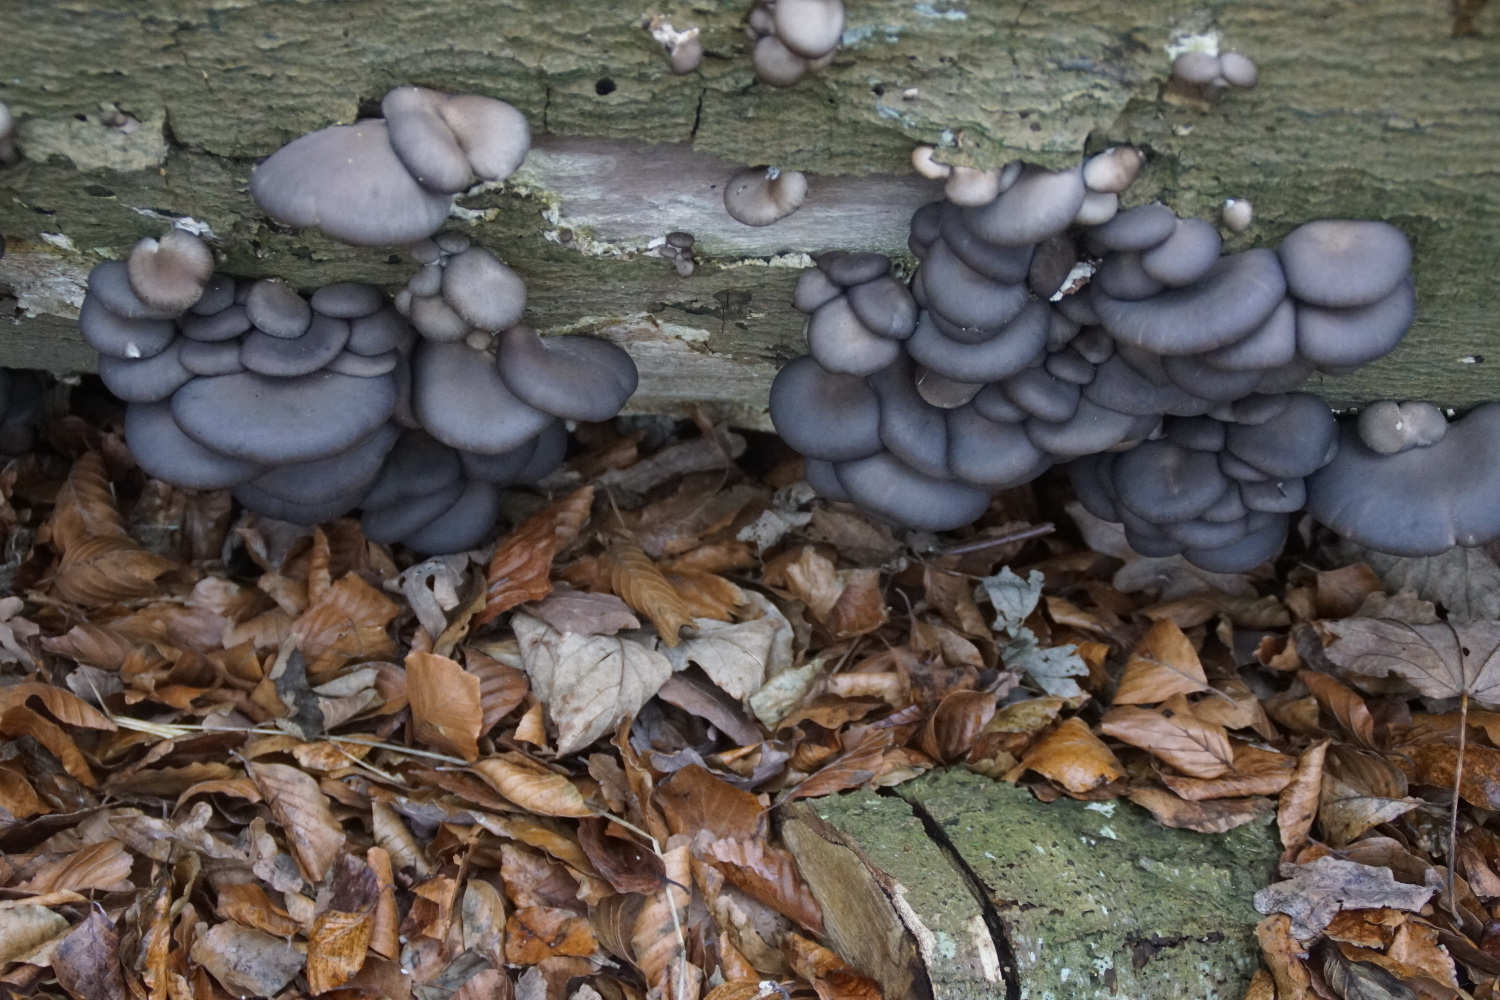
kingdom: Fungi
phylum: Basidiomycota
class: Agaricomycetes
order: Agaricales
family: Pleurotaceae
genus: Pleurotus
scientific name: Pleurotus ostreatus
